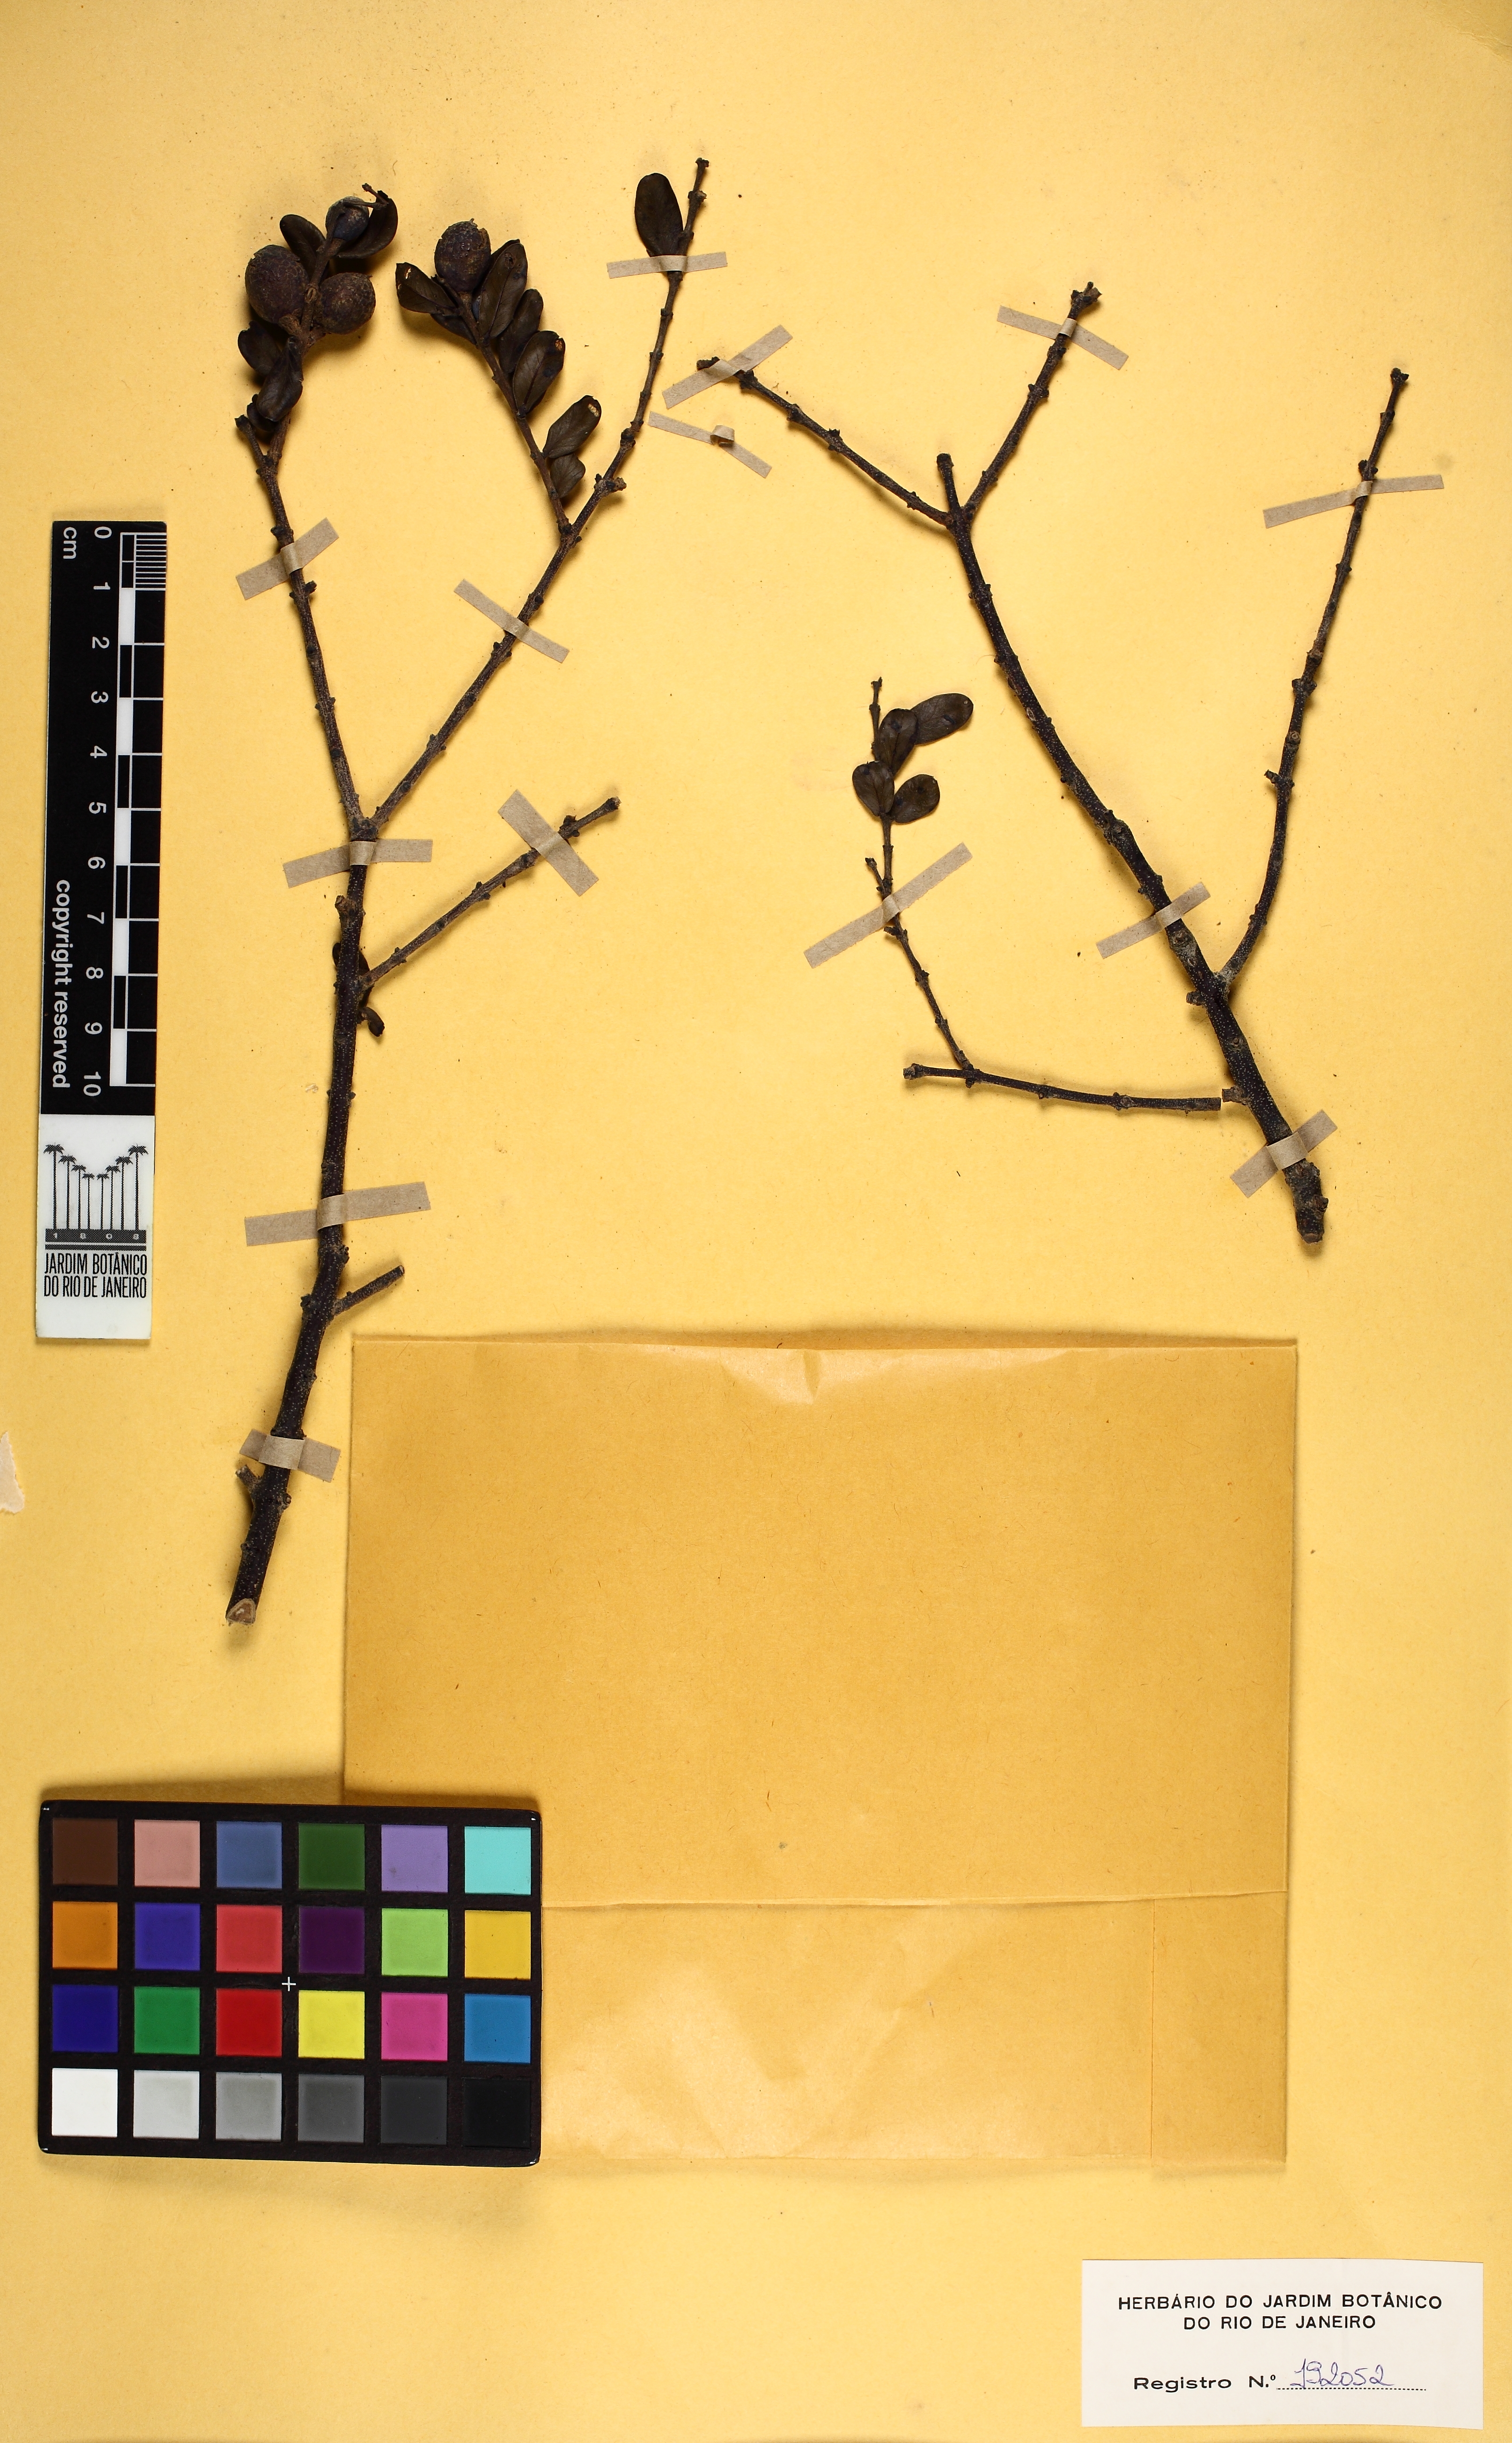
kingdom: Plantae
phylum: Tracheophyta
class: Magnoliopsida
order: Myrtales
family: Vochysiaceae
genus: Callisthene
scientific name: Callisthene major
